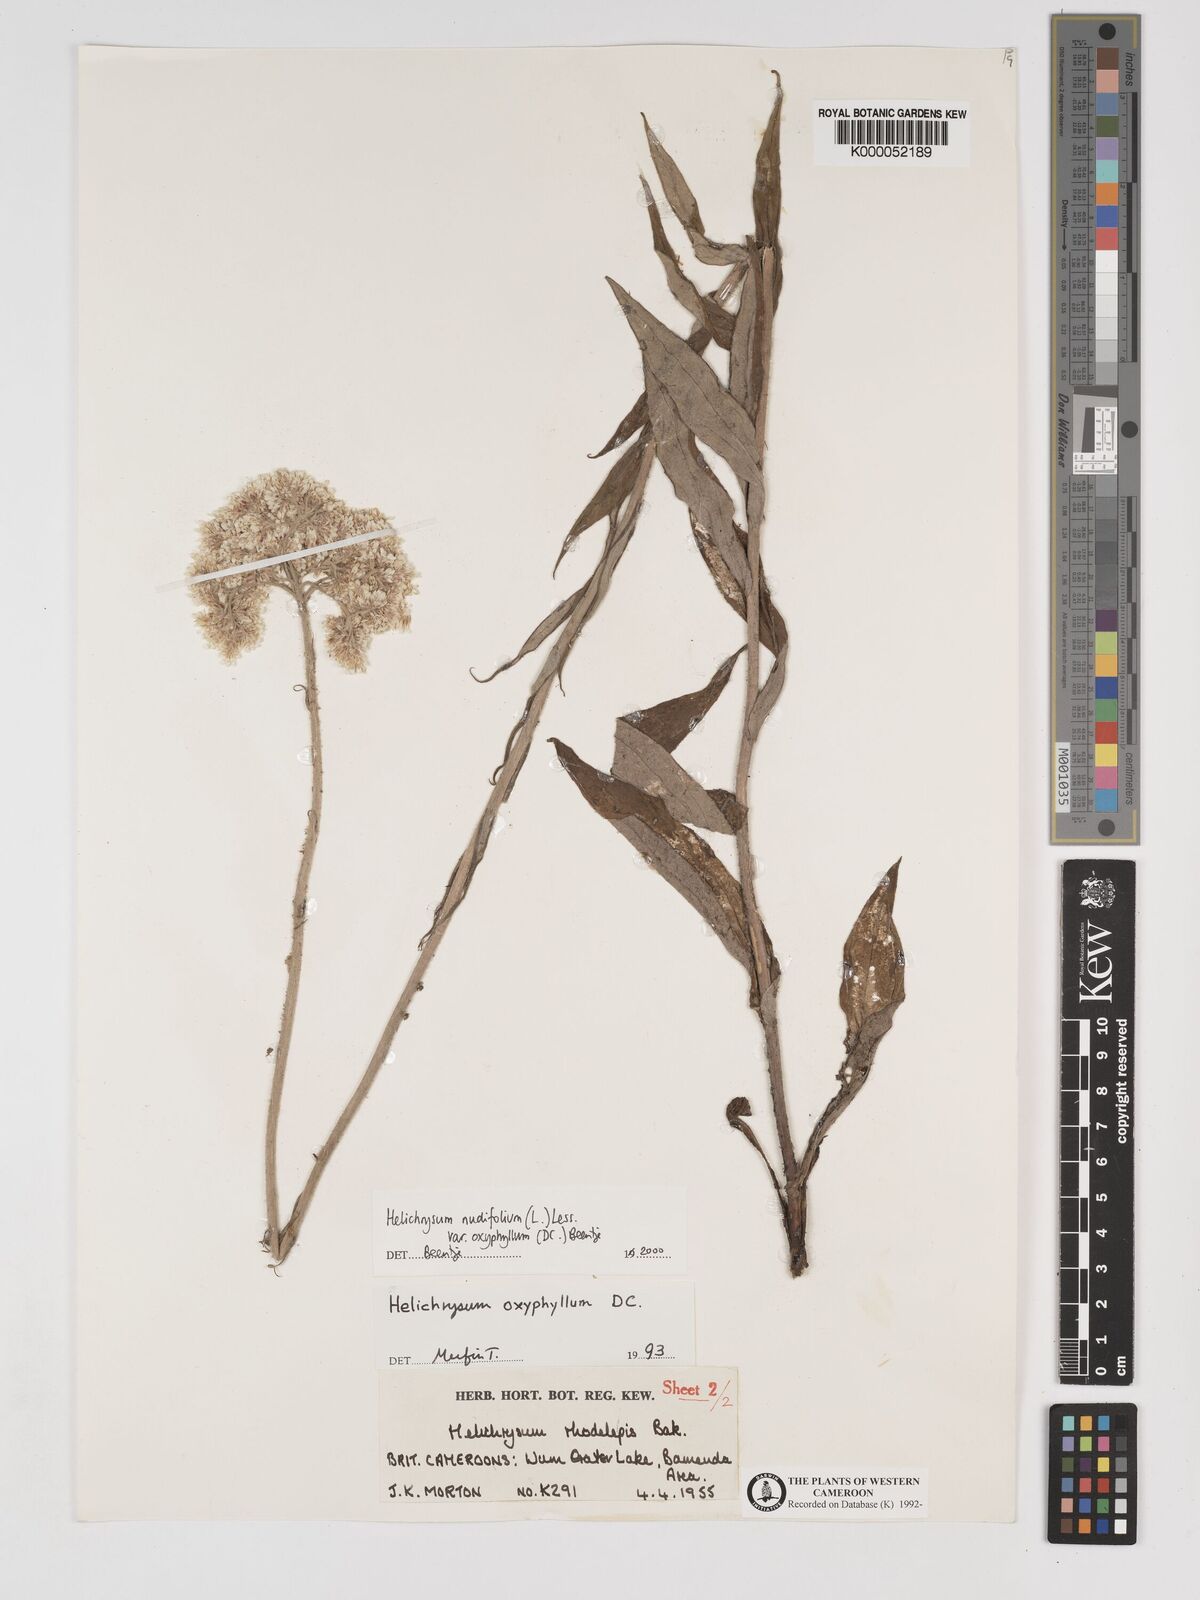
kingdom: Plantae
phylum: Tracheophyta
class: Magnoliopsida
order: Asterales
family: Asteraceae
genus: Helichrysum
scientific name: Helichrysum nudifolium
